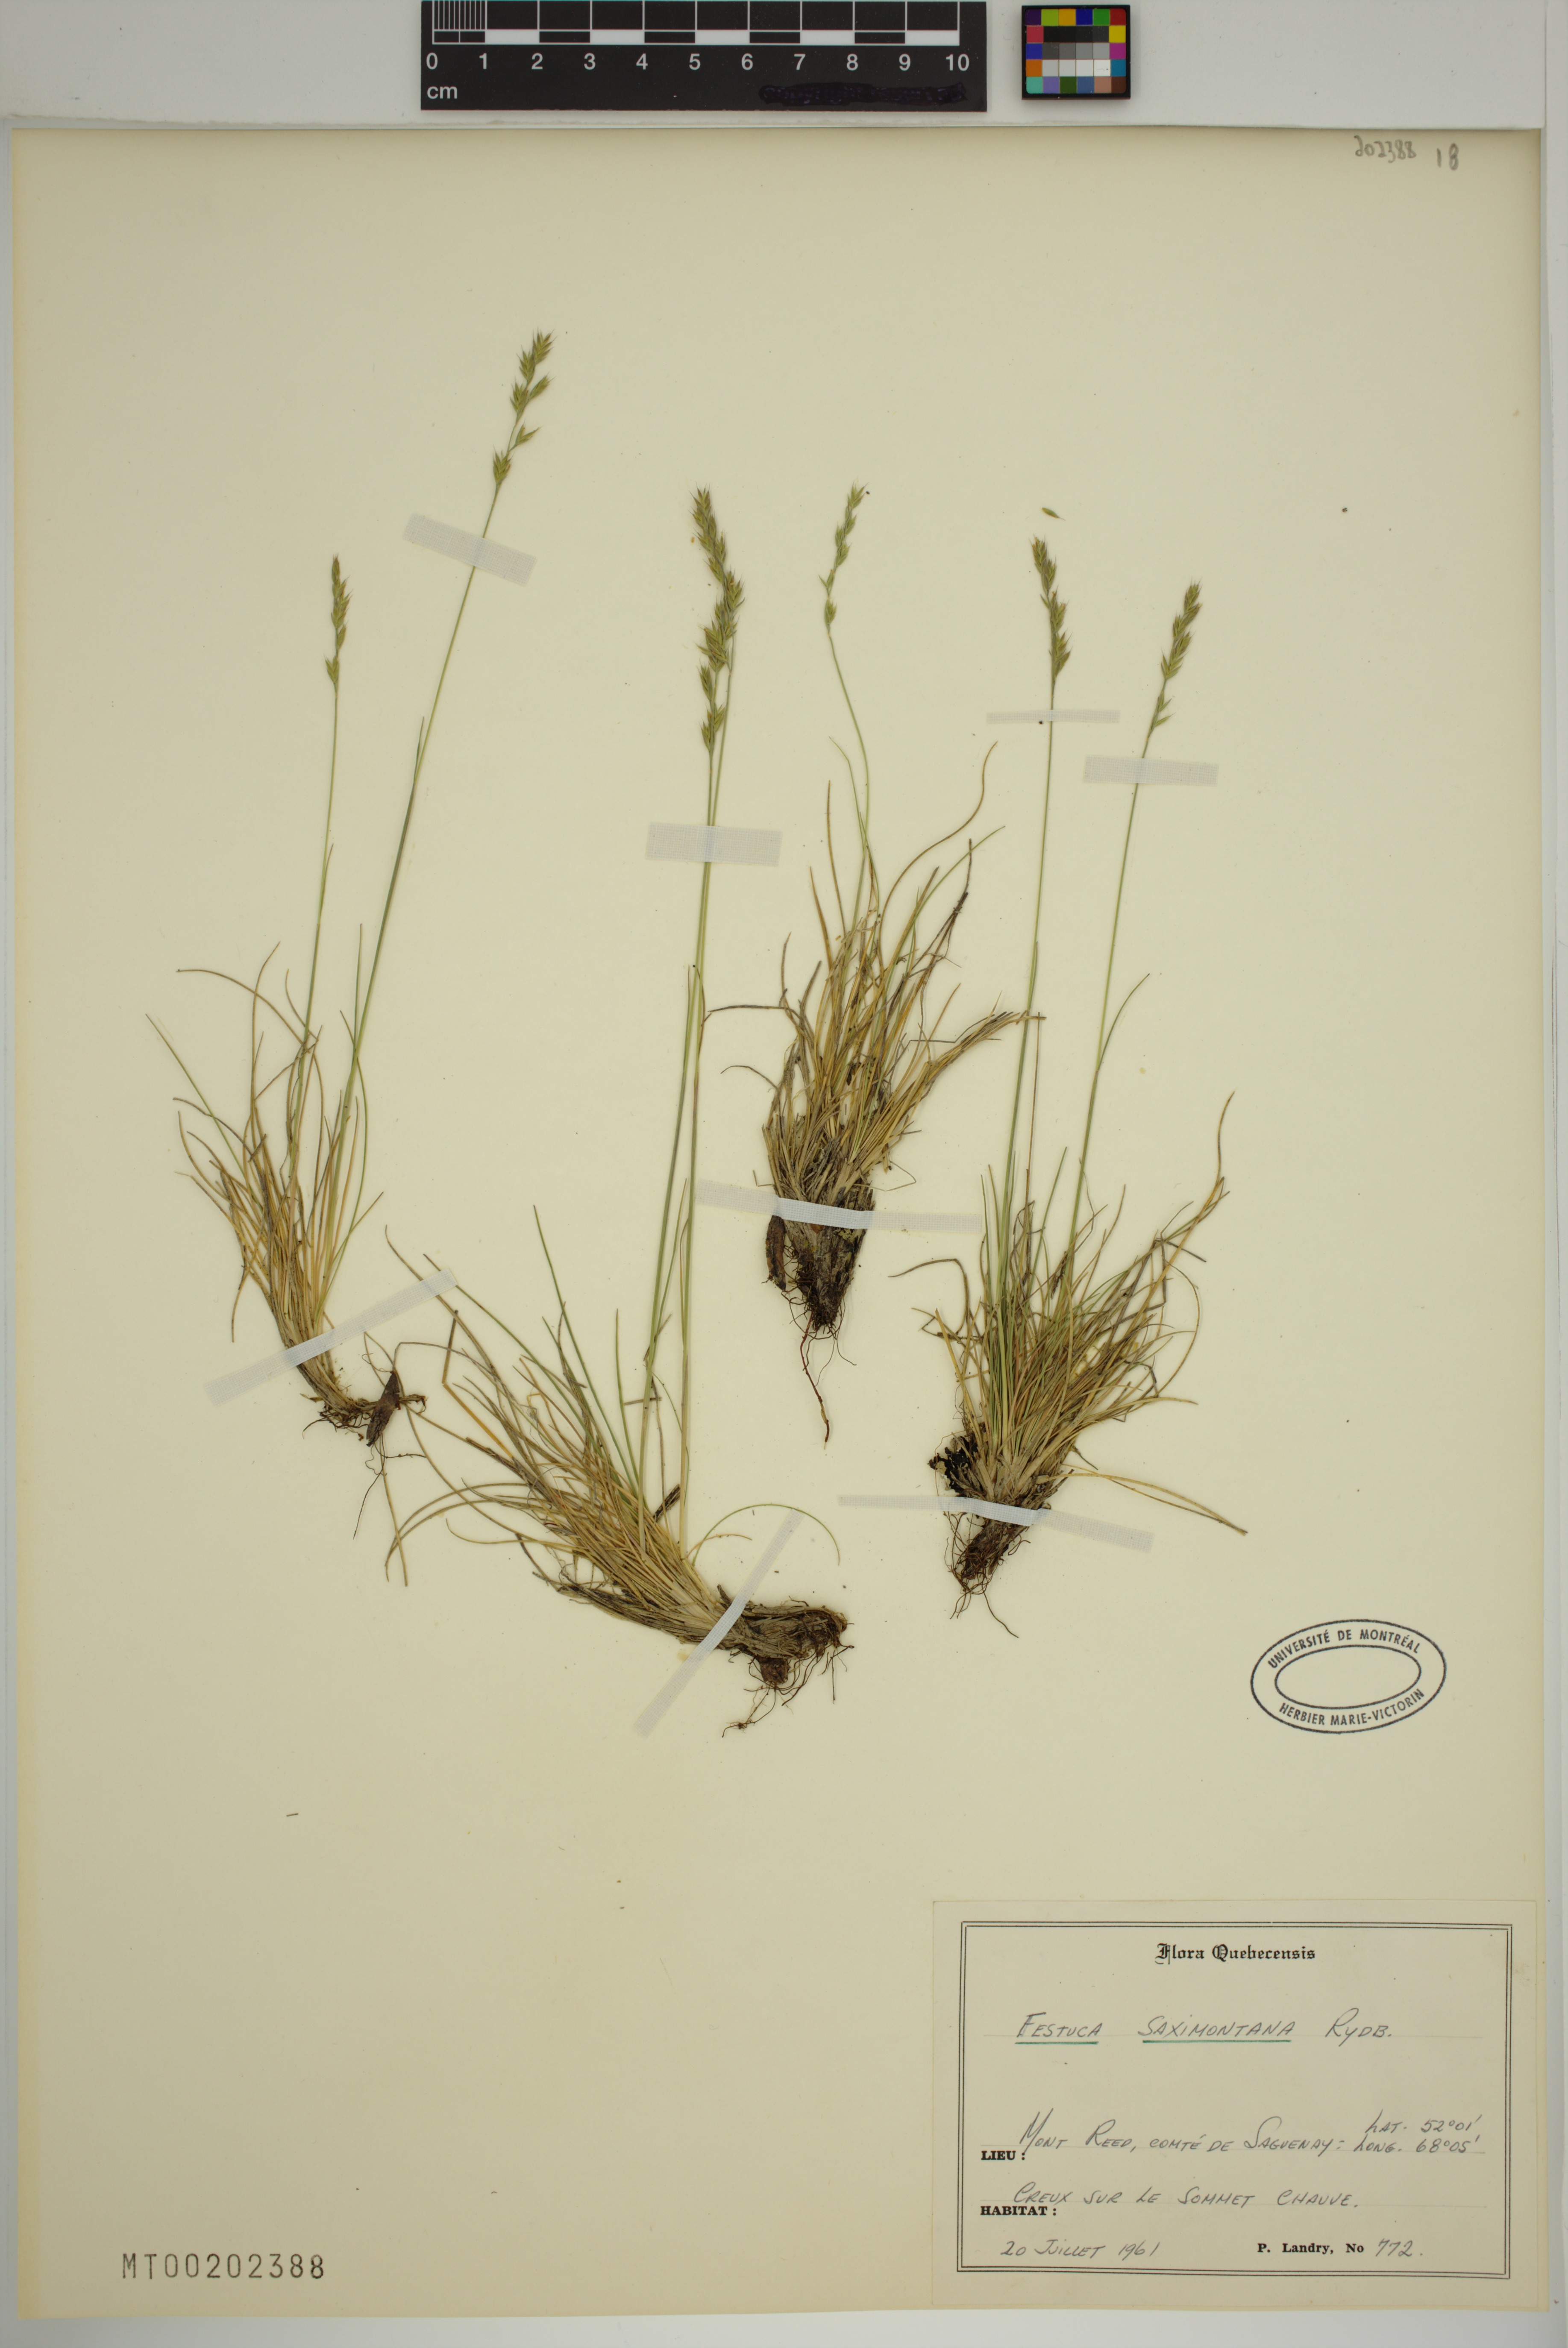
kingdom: Plantae
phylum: Tracheophyta
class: Liliopsida
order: Poales
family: Poaceae
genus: Festuca
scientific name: Festuca saximontana
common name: Mountain fescue
